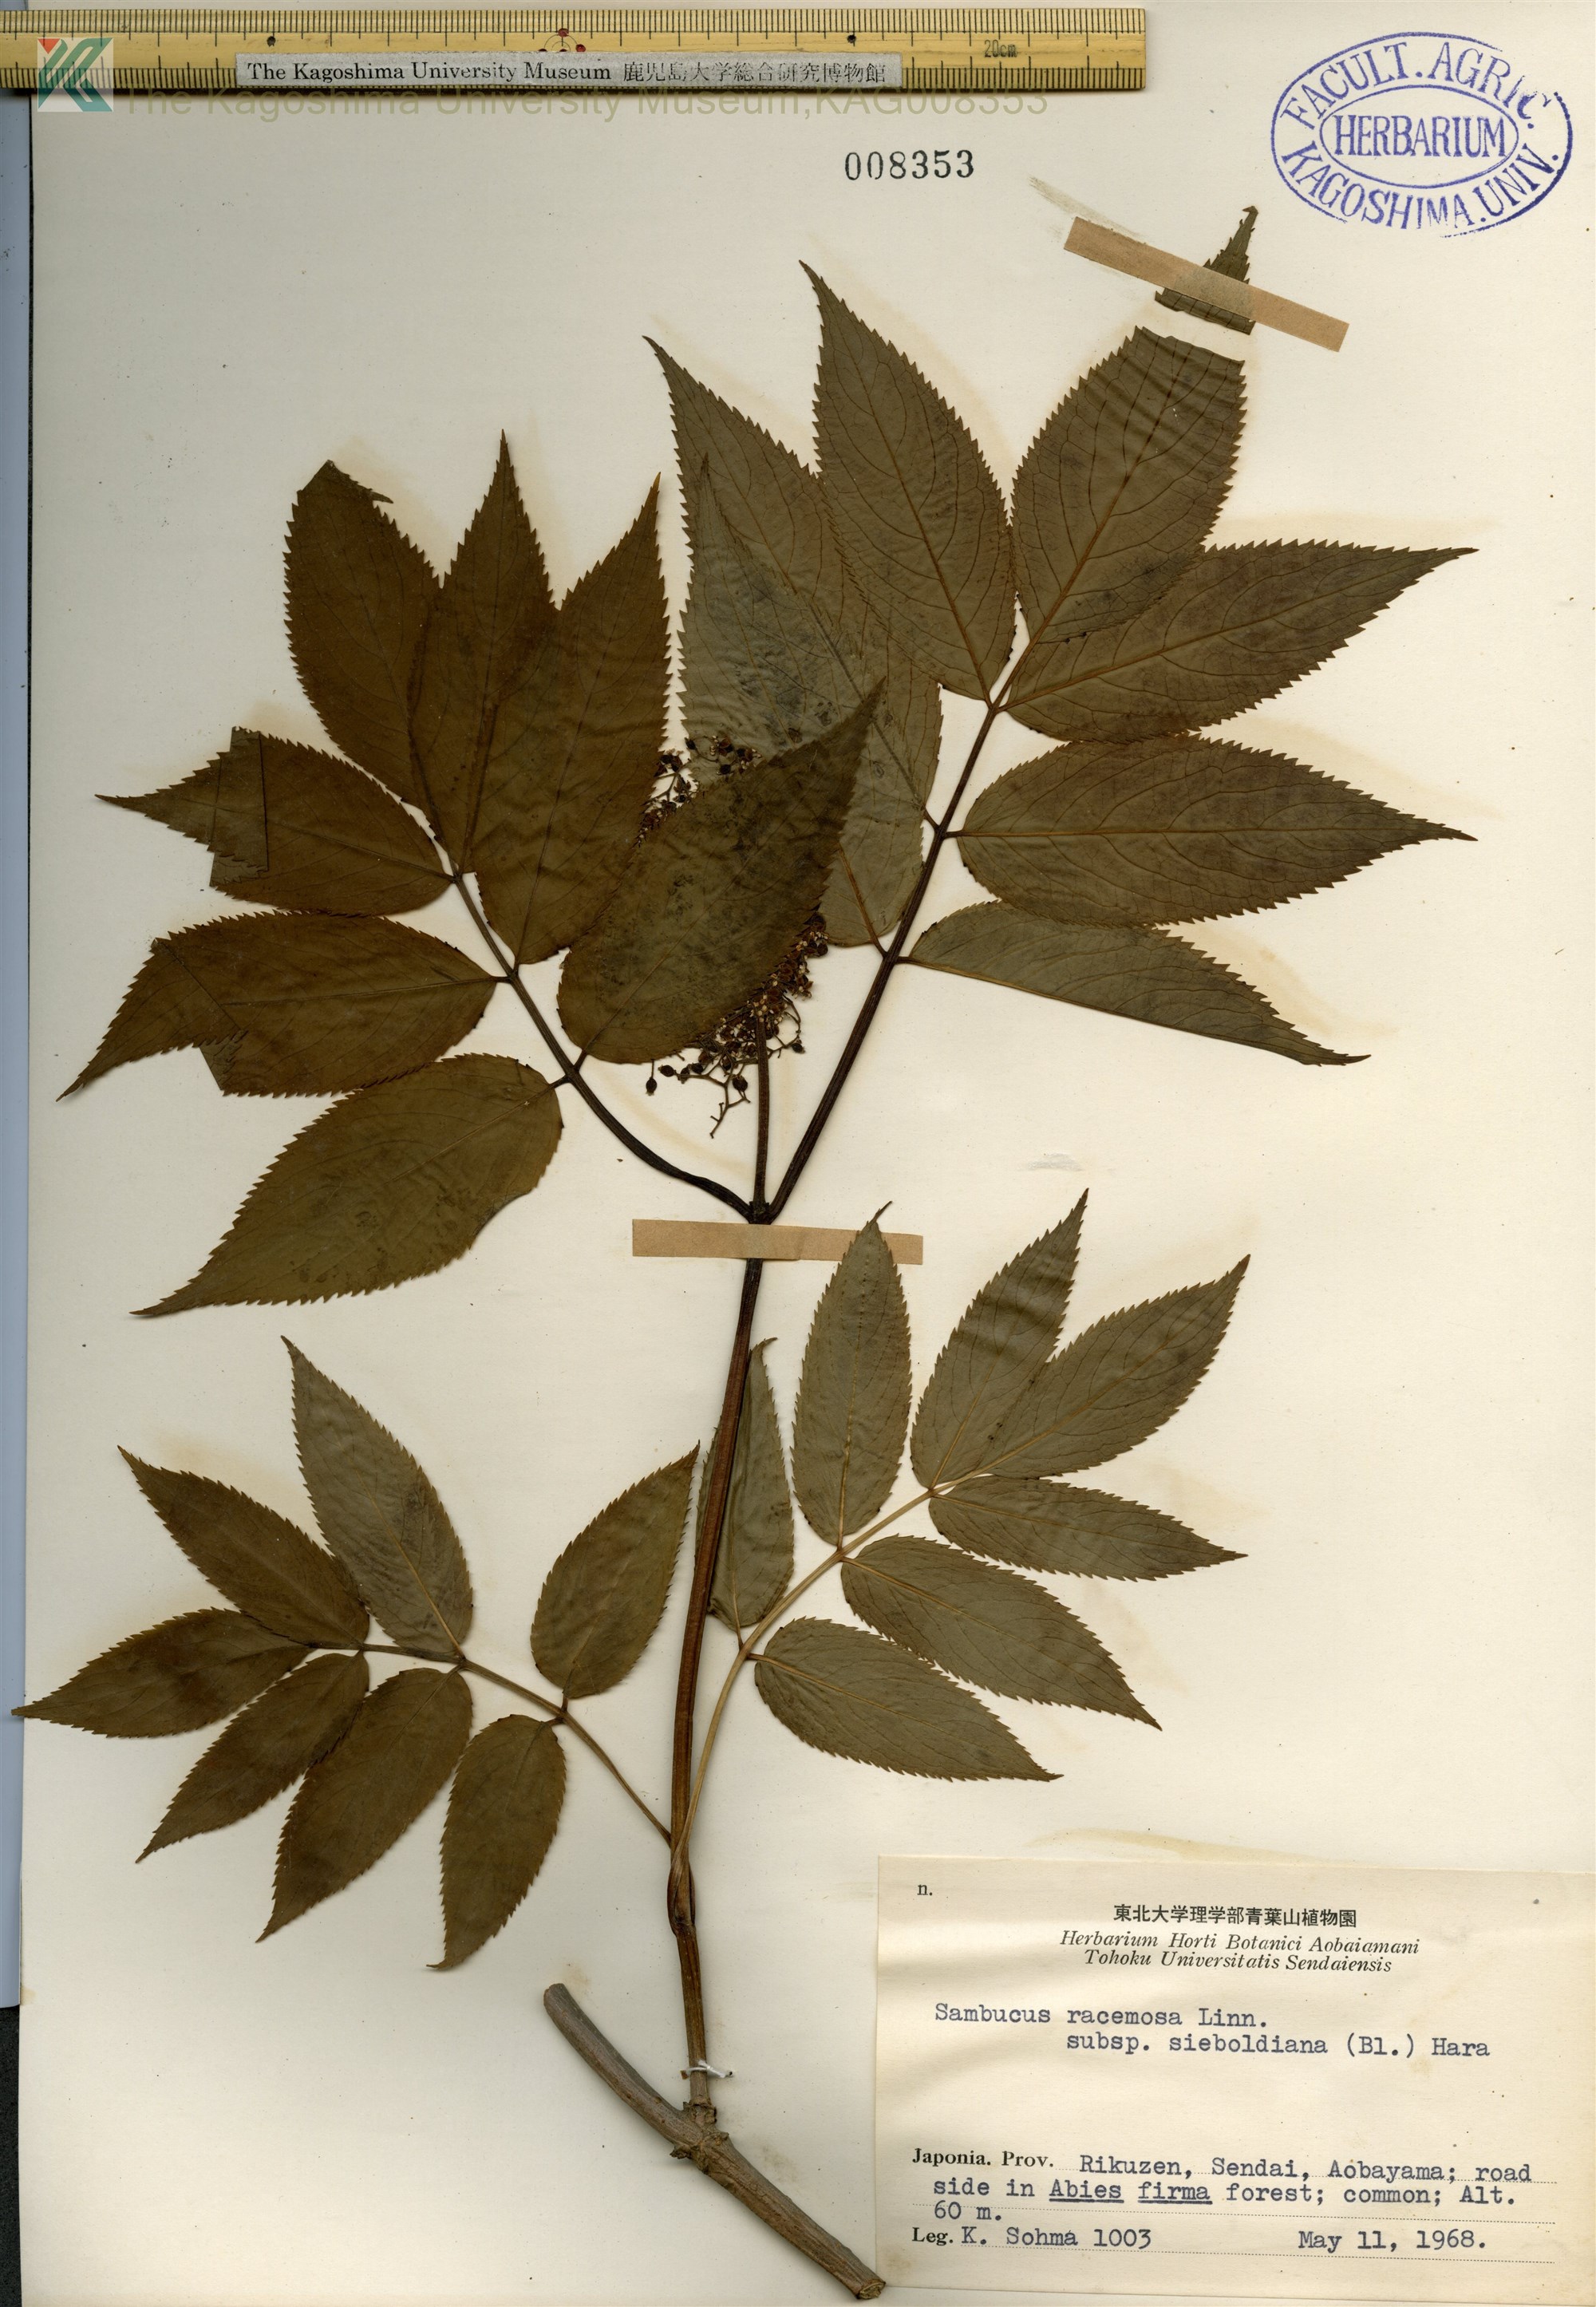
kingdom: Plantae
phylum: Tracheophyta
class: Magnoliopsida
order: Dipsacales
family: Viburnaceae
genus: Sambucus
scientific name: Sambucus sieboldiana
